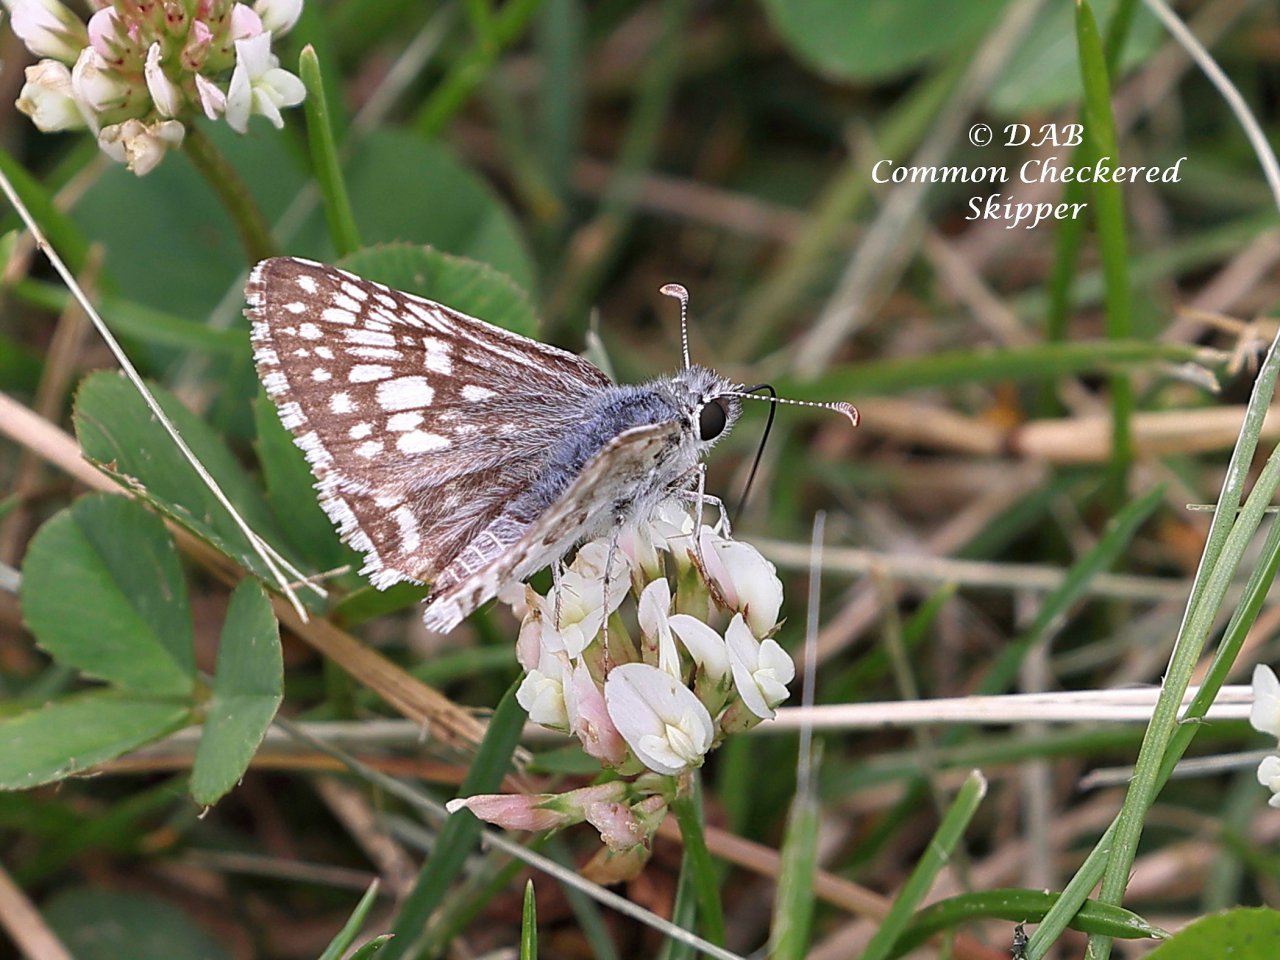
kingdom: Animalia
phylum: Arthropoda
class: Insecta
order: Lepidoptera
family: Hesperiidae
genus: Pyrgus
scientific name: Pyrgus communis
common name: Common Checkered-Skipper
